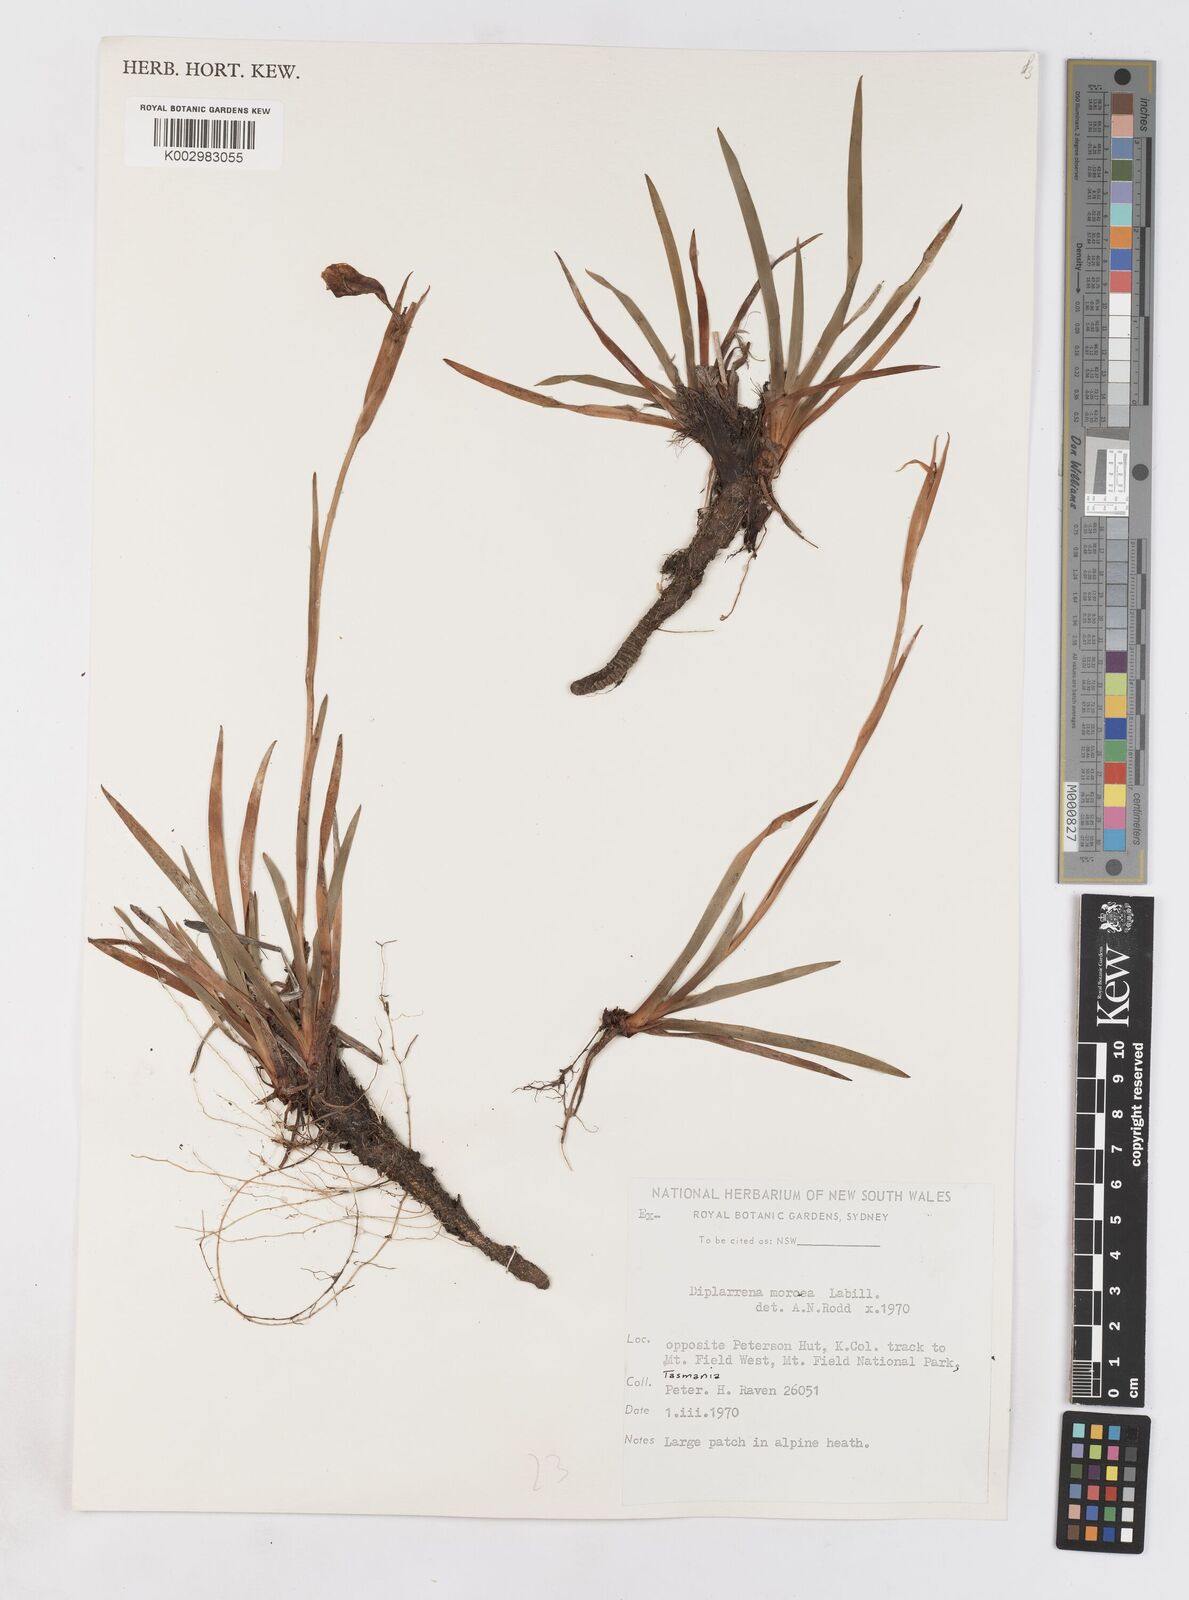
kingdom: Plantae
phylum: Tracheophyta
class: Liliopsida
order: Asparagales
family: Iridaceae
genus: Diplarrena
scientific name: Diplarrena moraea
